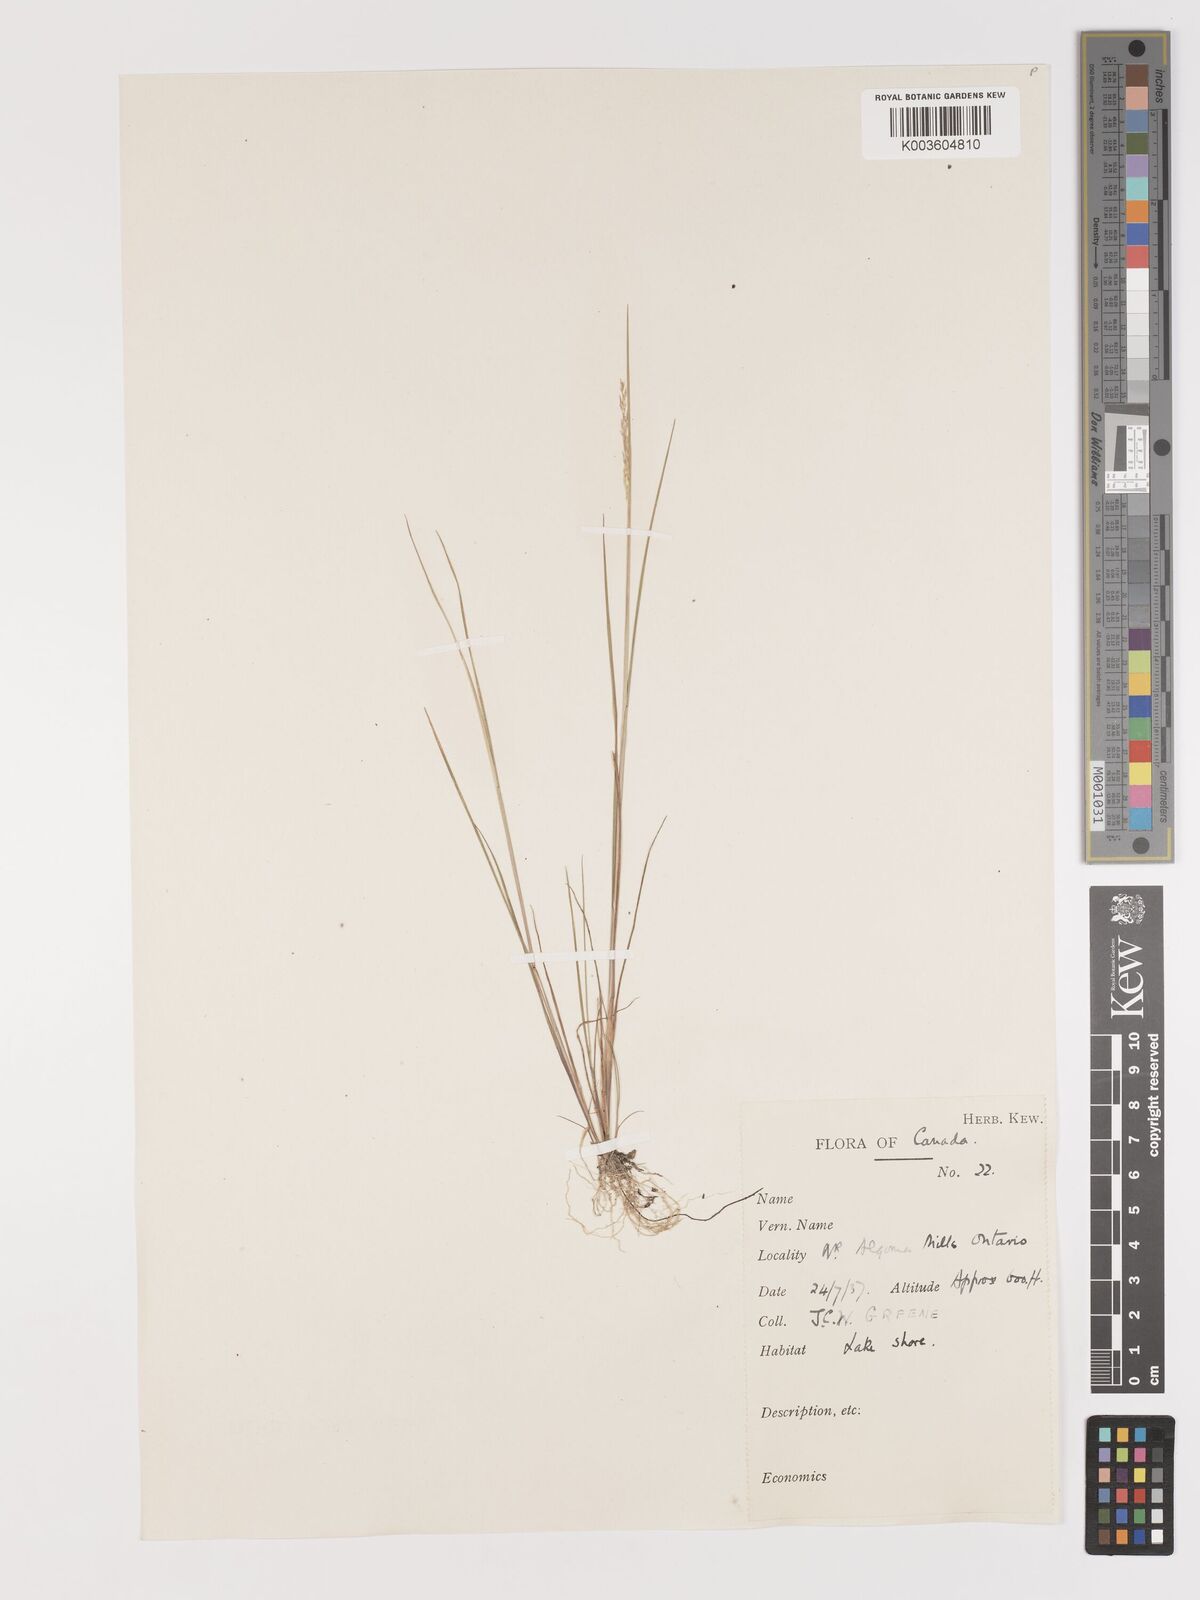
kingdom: Plantae
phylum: Tracheophyta
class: Liliopsida
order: Poales
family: Poaceae
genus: Agrostis
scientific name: Agrostis
